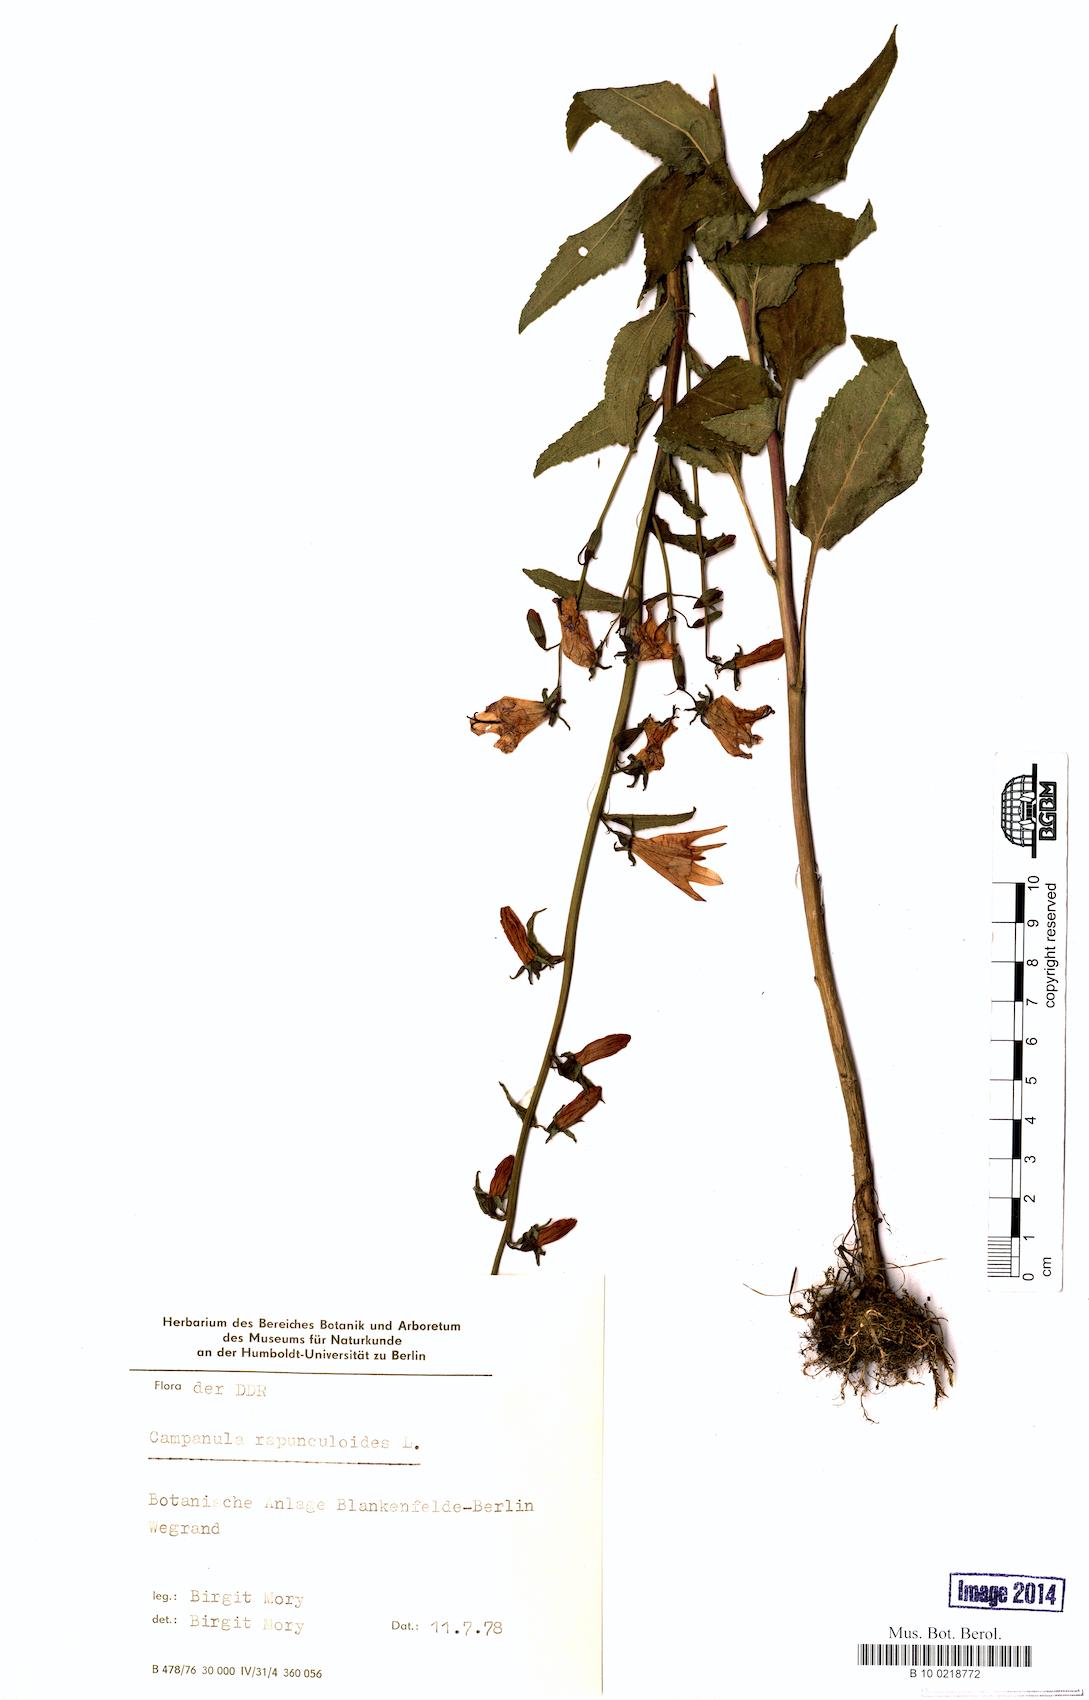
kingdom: Plantae
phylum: Tracheophyta
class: Magnoliopsida
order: Asterales
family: Campanulaceae
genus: Campanula
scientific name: Campanula rapunculoides
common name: Creeping bellflower
